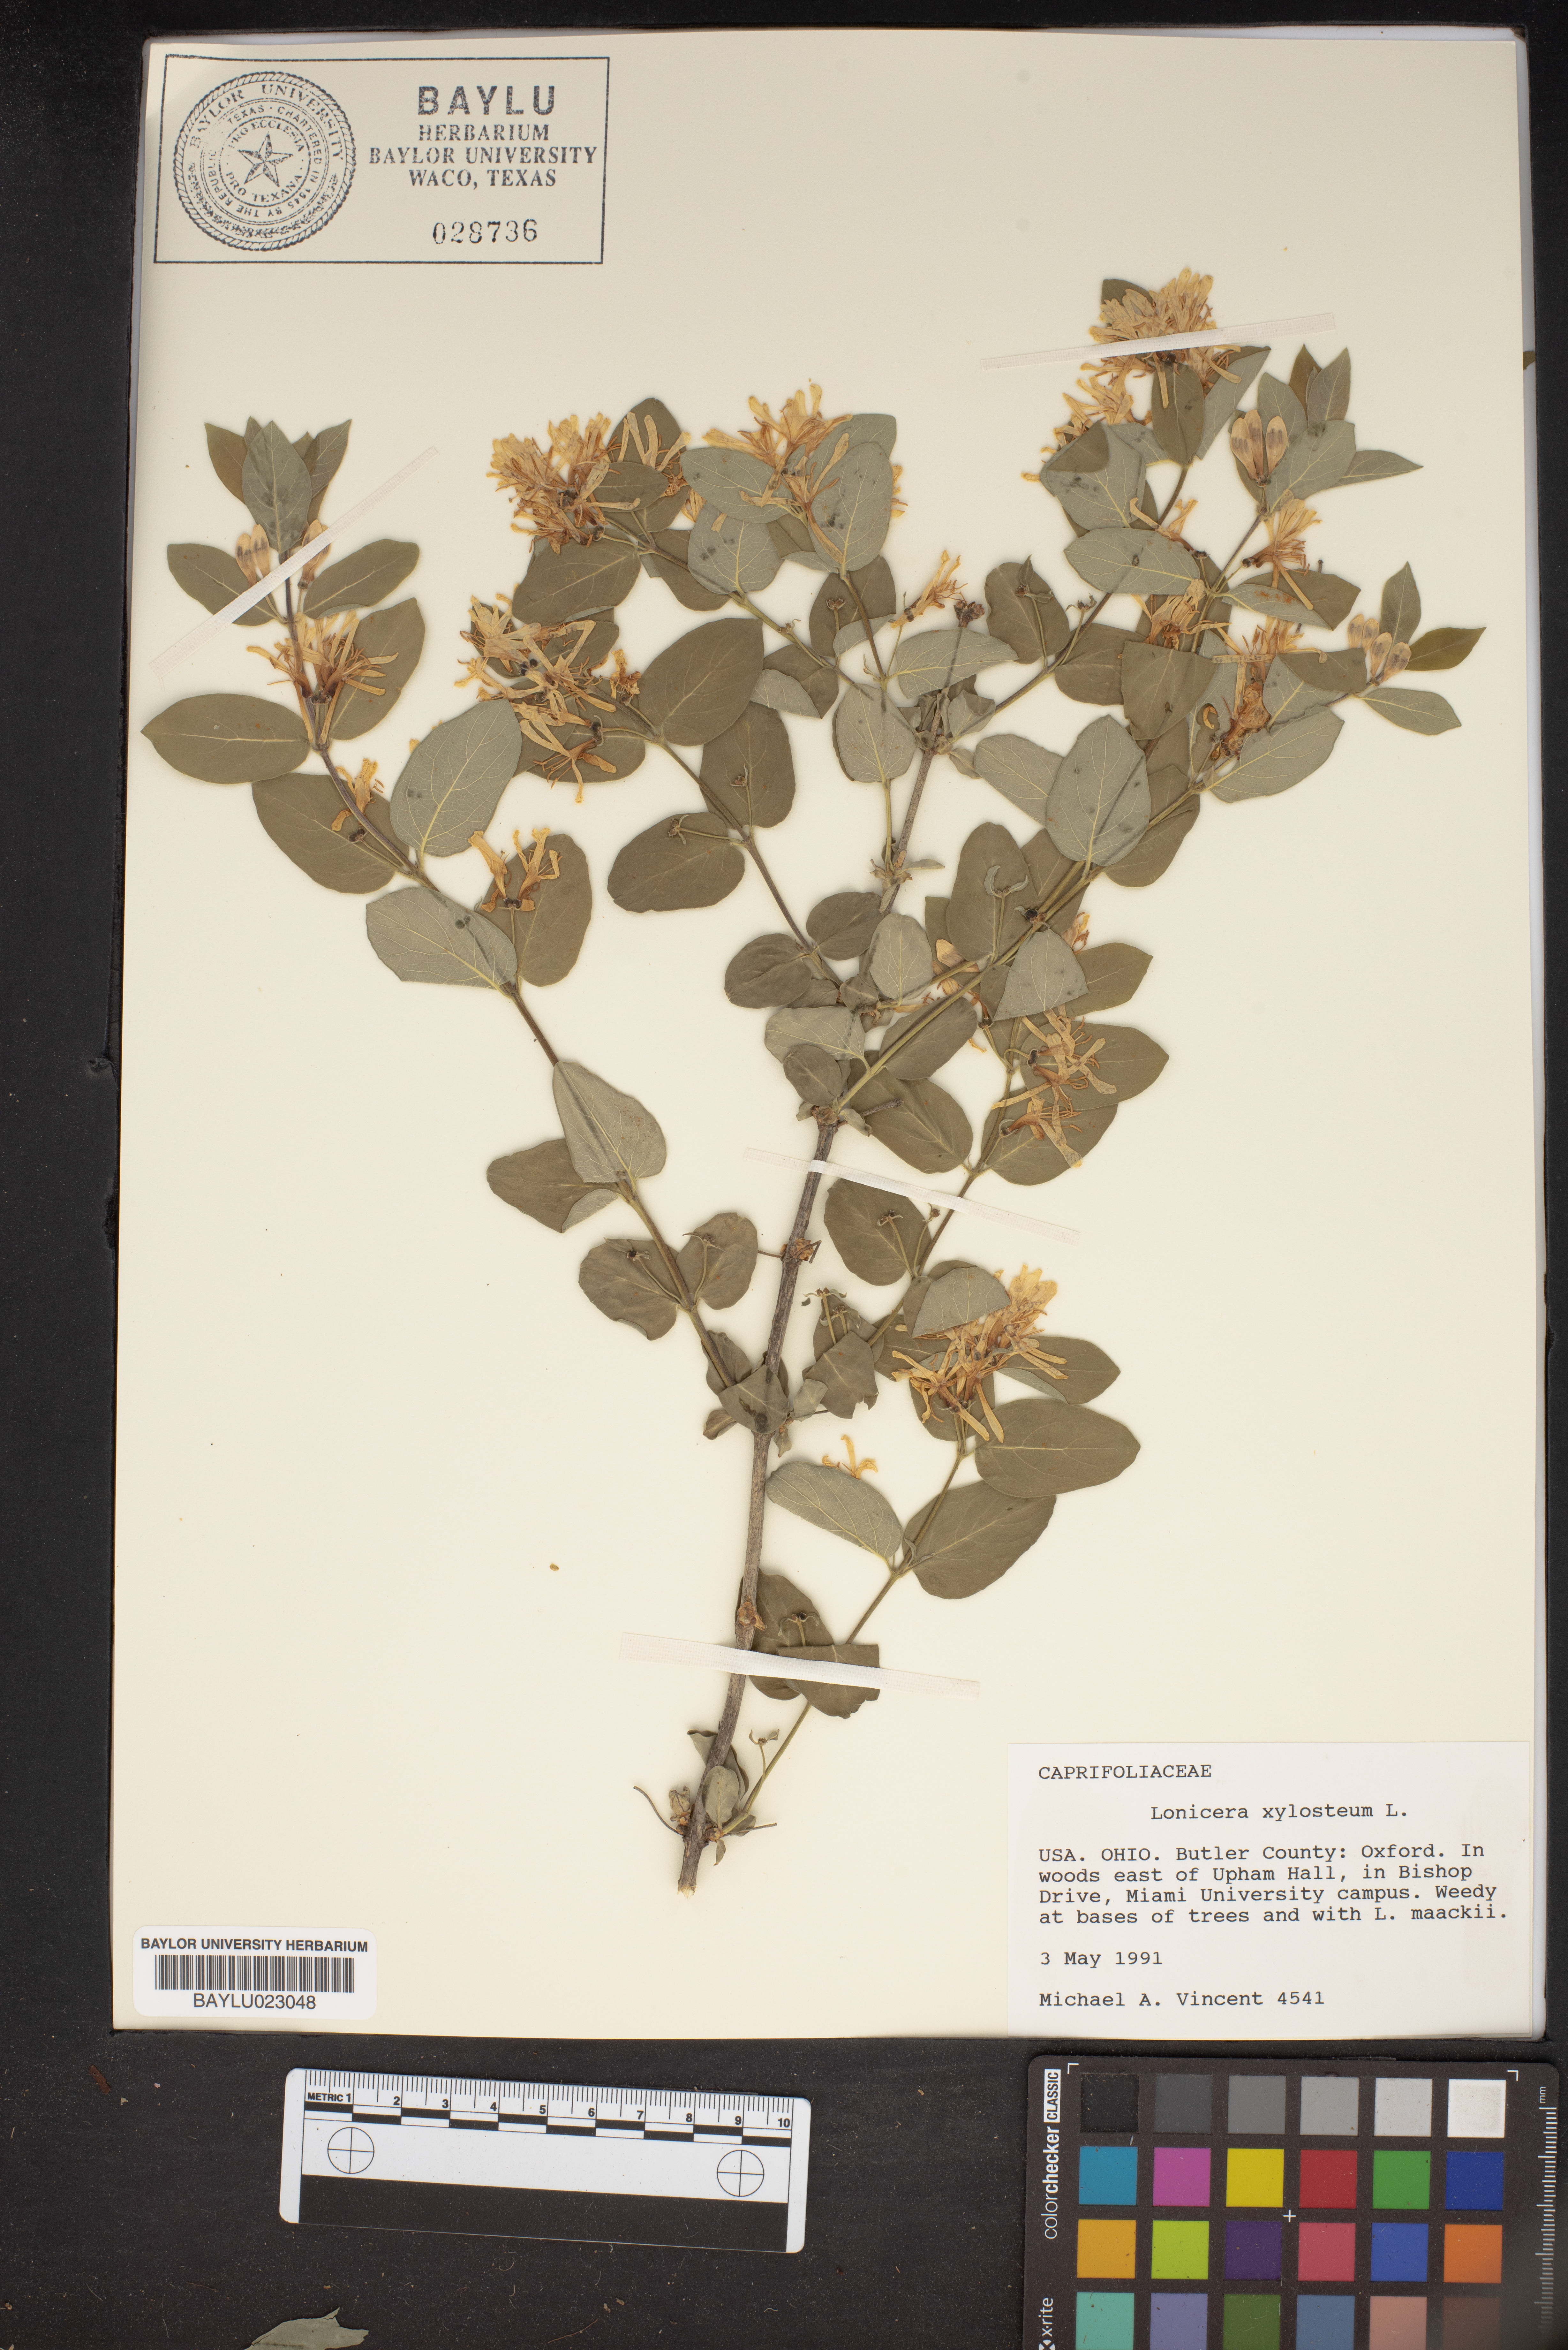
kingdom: Plantae
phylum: Tracheophyta
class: Magnoliopsida
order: Dipsacales
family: Caprifoliaceae
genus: Lonicera
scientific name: Lonicera xylosteum
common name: Fly honeysuckle
